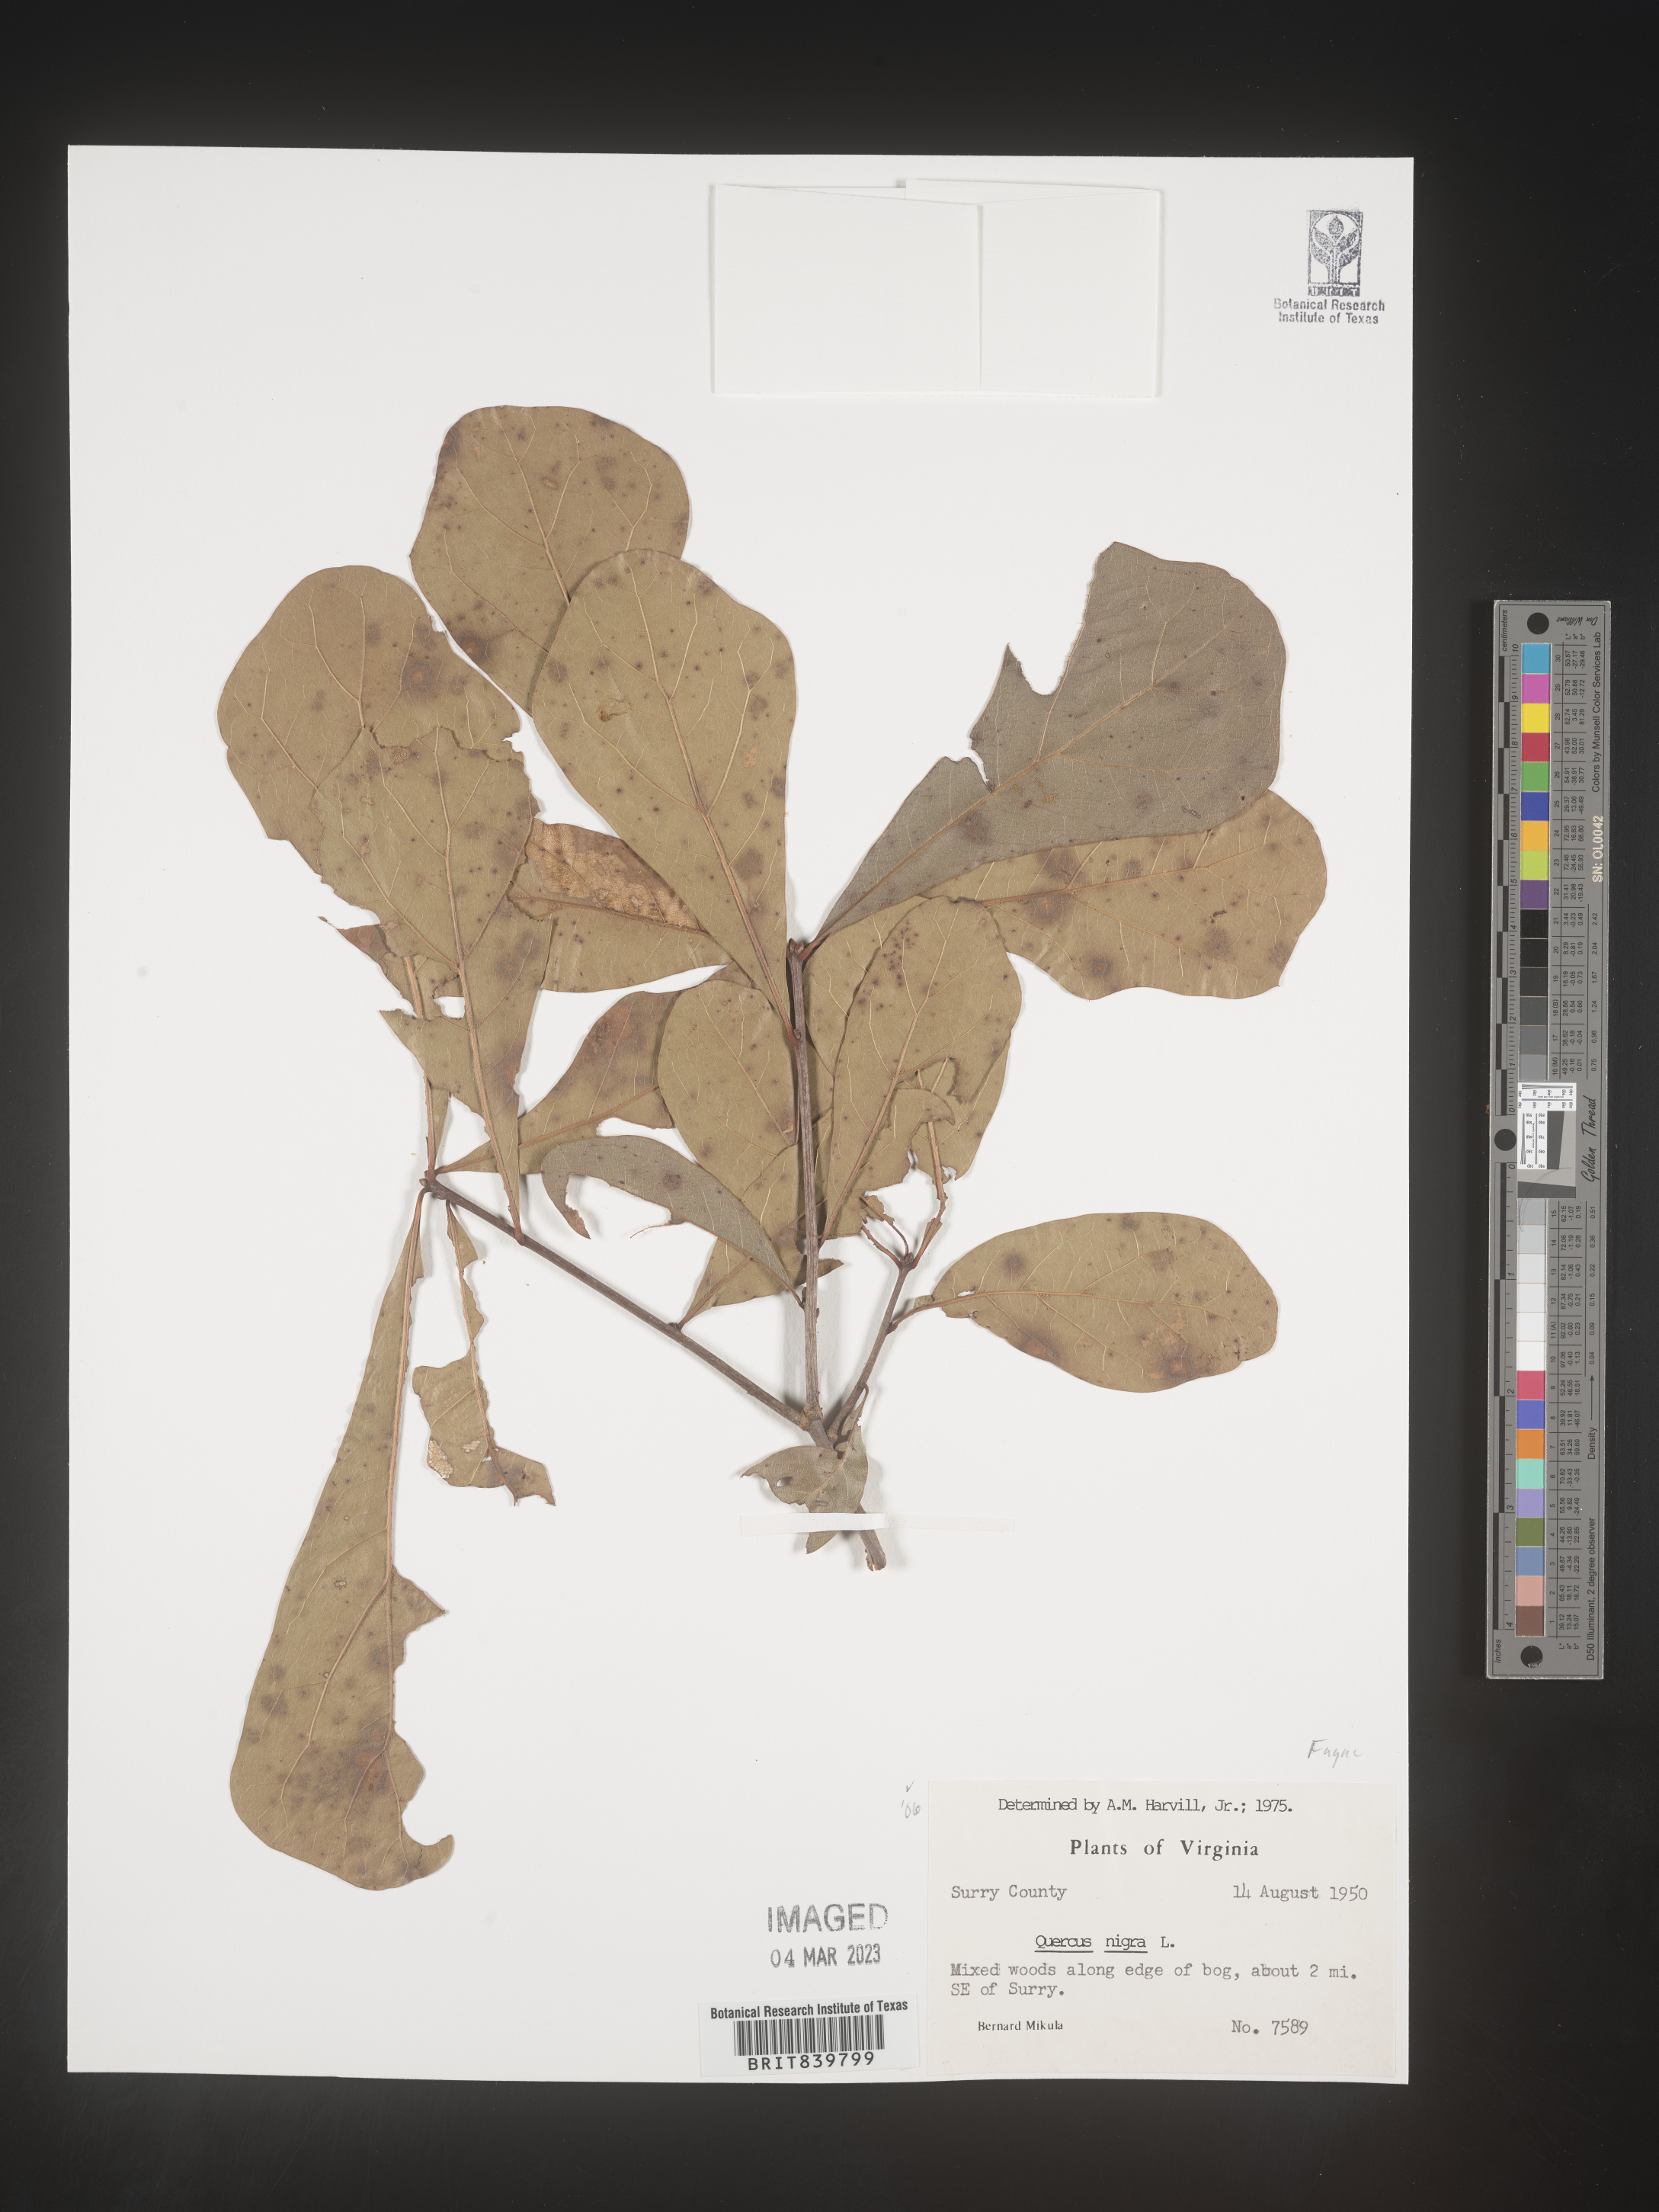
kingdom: Plantae
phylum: Tracheophyta
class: Magnoliopsida
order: Fagales
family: Fagaceae
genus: Quercus
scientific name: Quercus nigra
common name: Water oak
